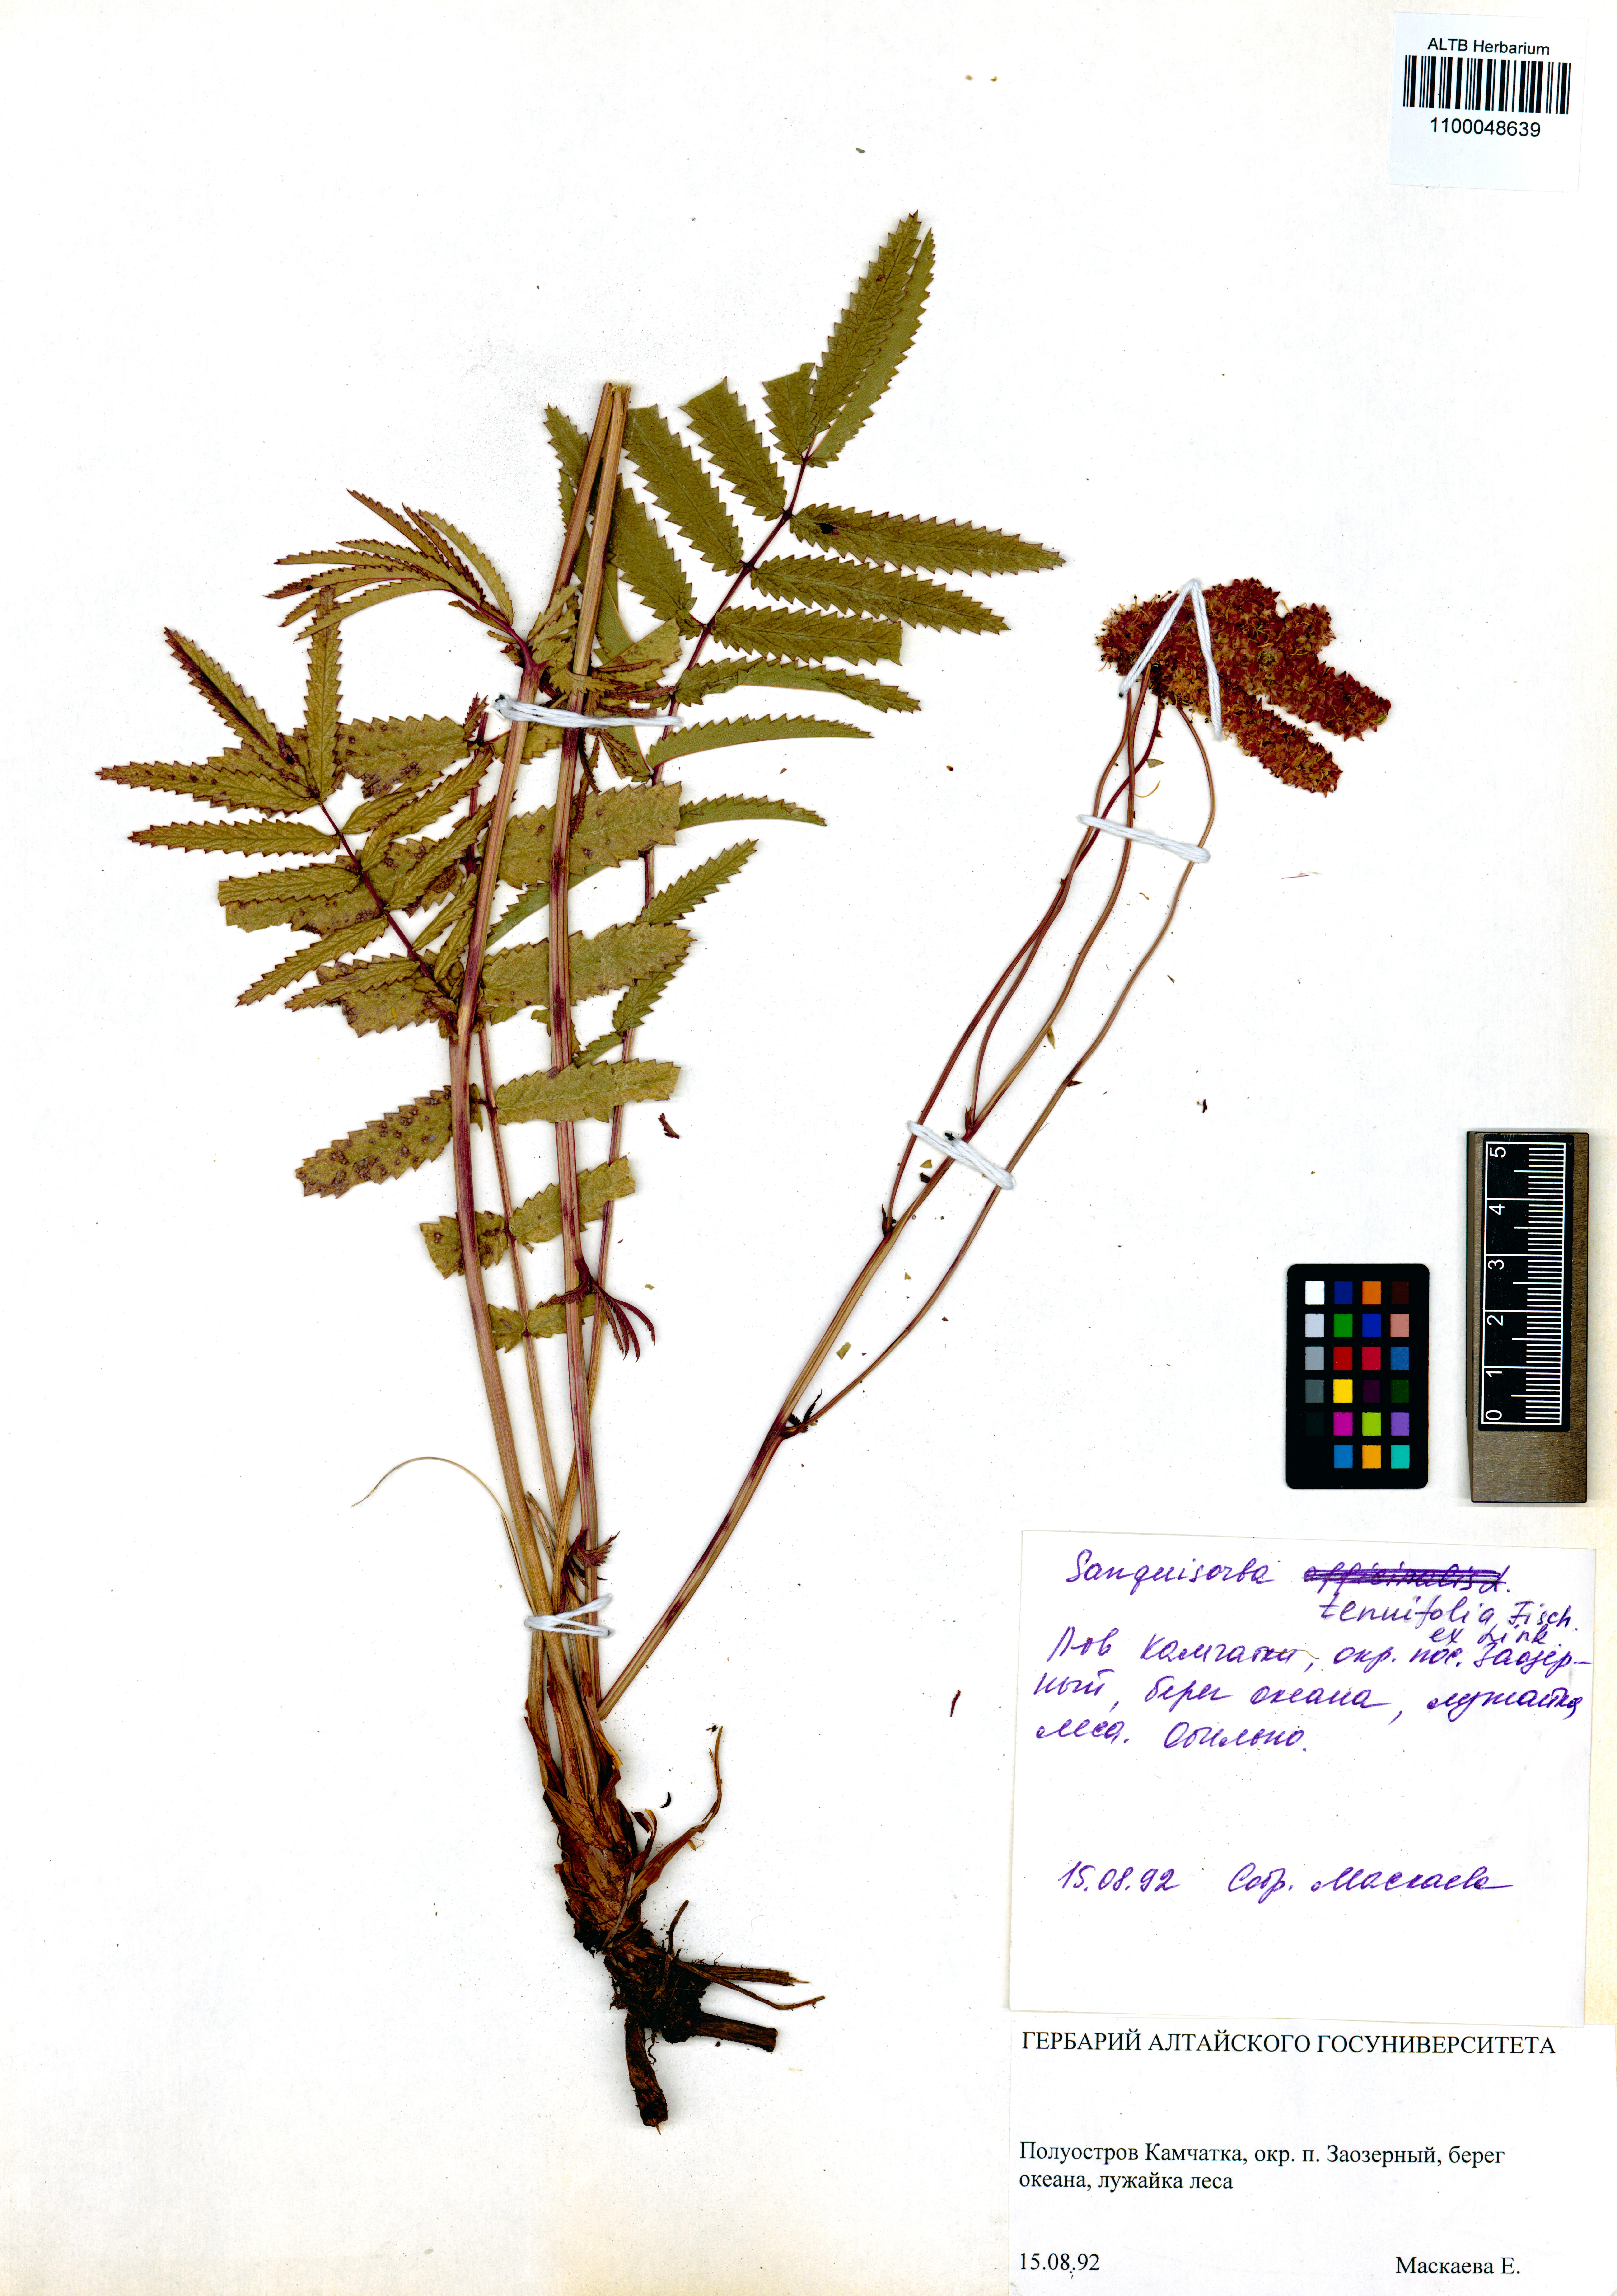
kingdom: Plantae
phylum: Tracheophyta
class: Magnoliopsida
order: Rosales
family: Rosaceae
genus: Poterium
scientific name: Poterium tenuifolium
